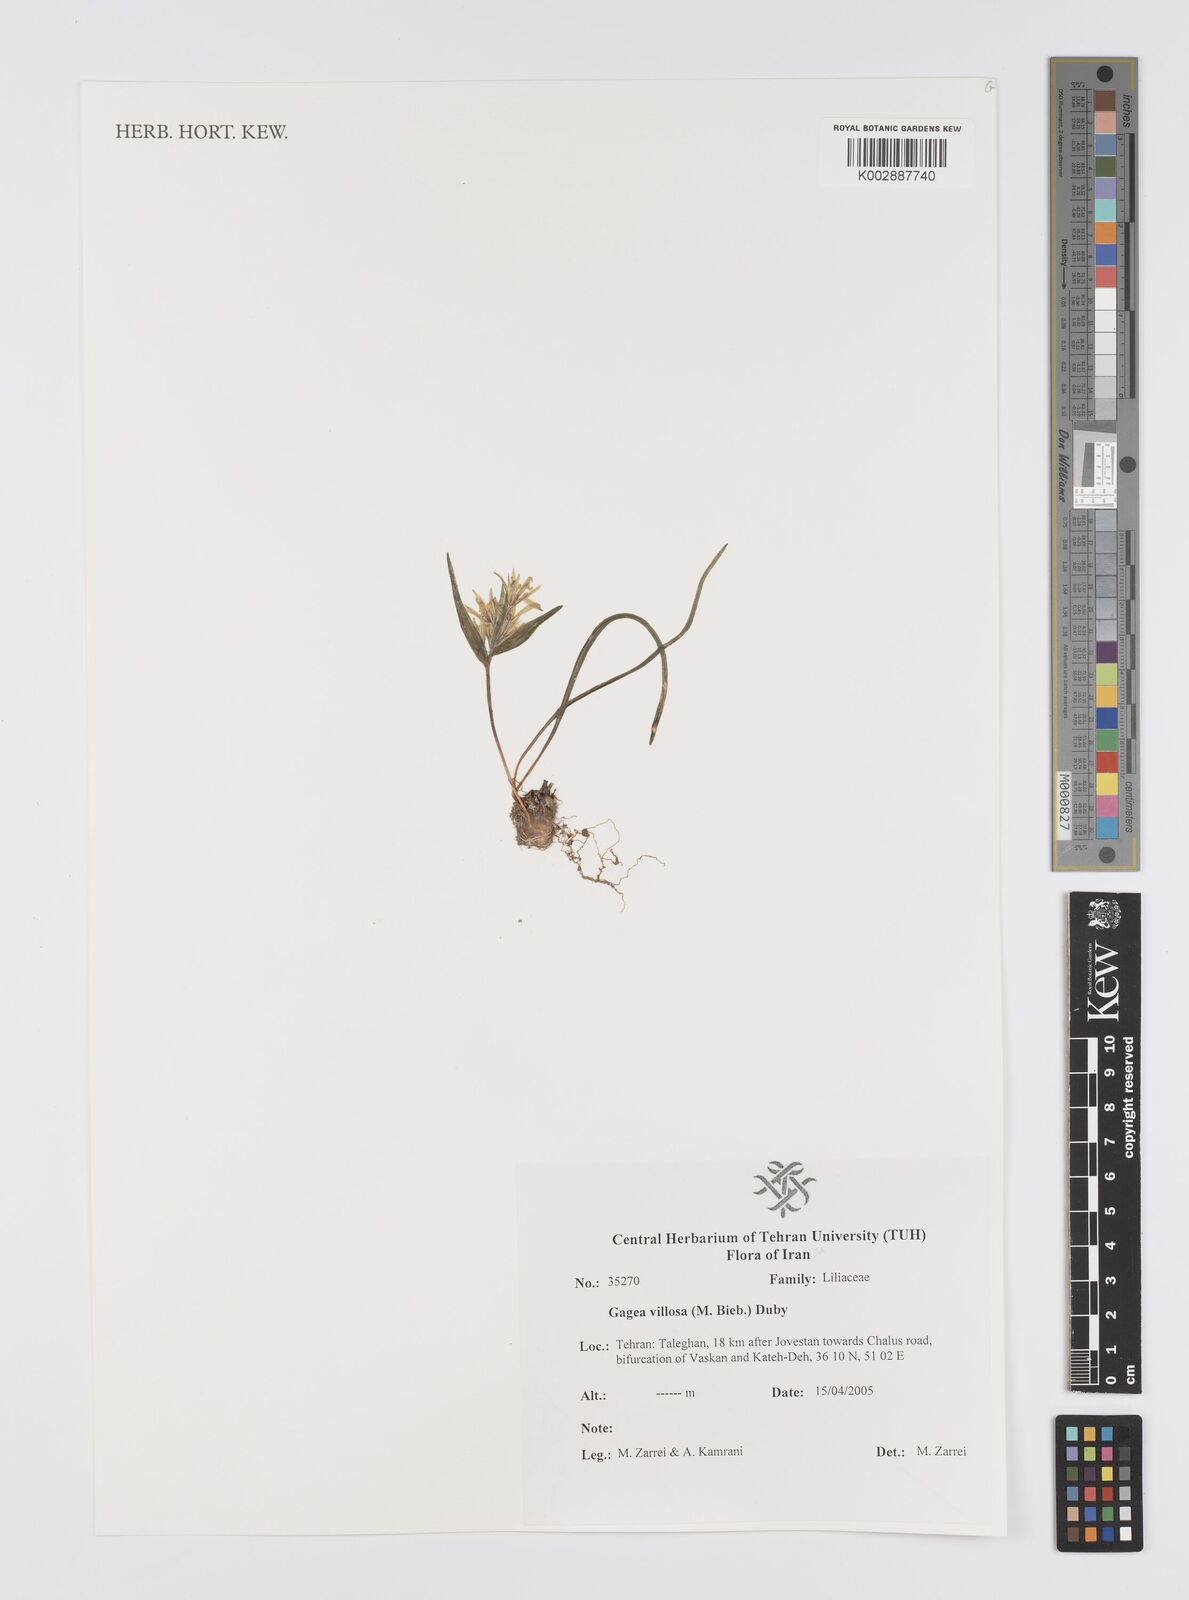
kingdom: Plantae
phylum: Tracheophyta
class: Liliopsida
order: Liliales
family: Liliaceae
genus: Gagea
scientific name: Gagea villosa
